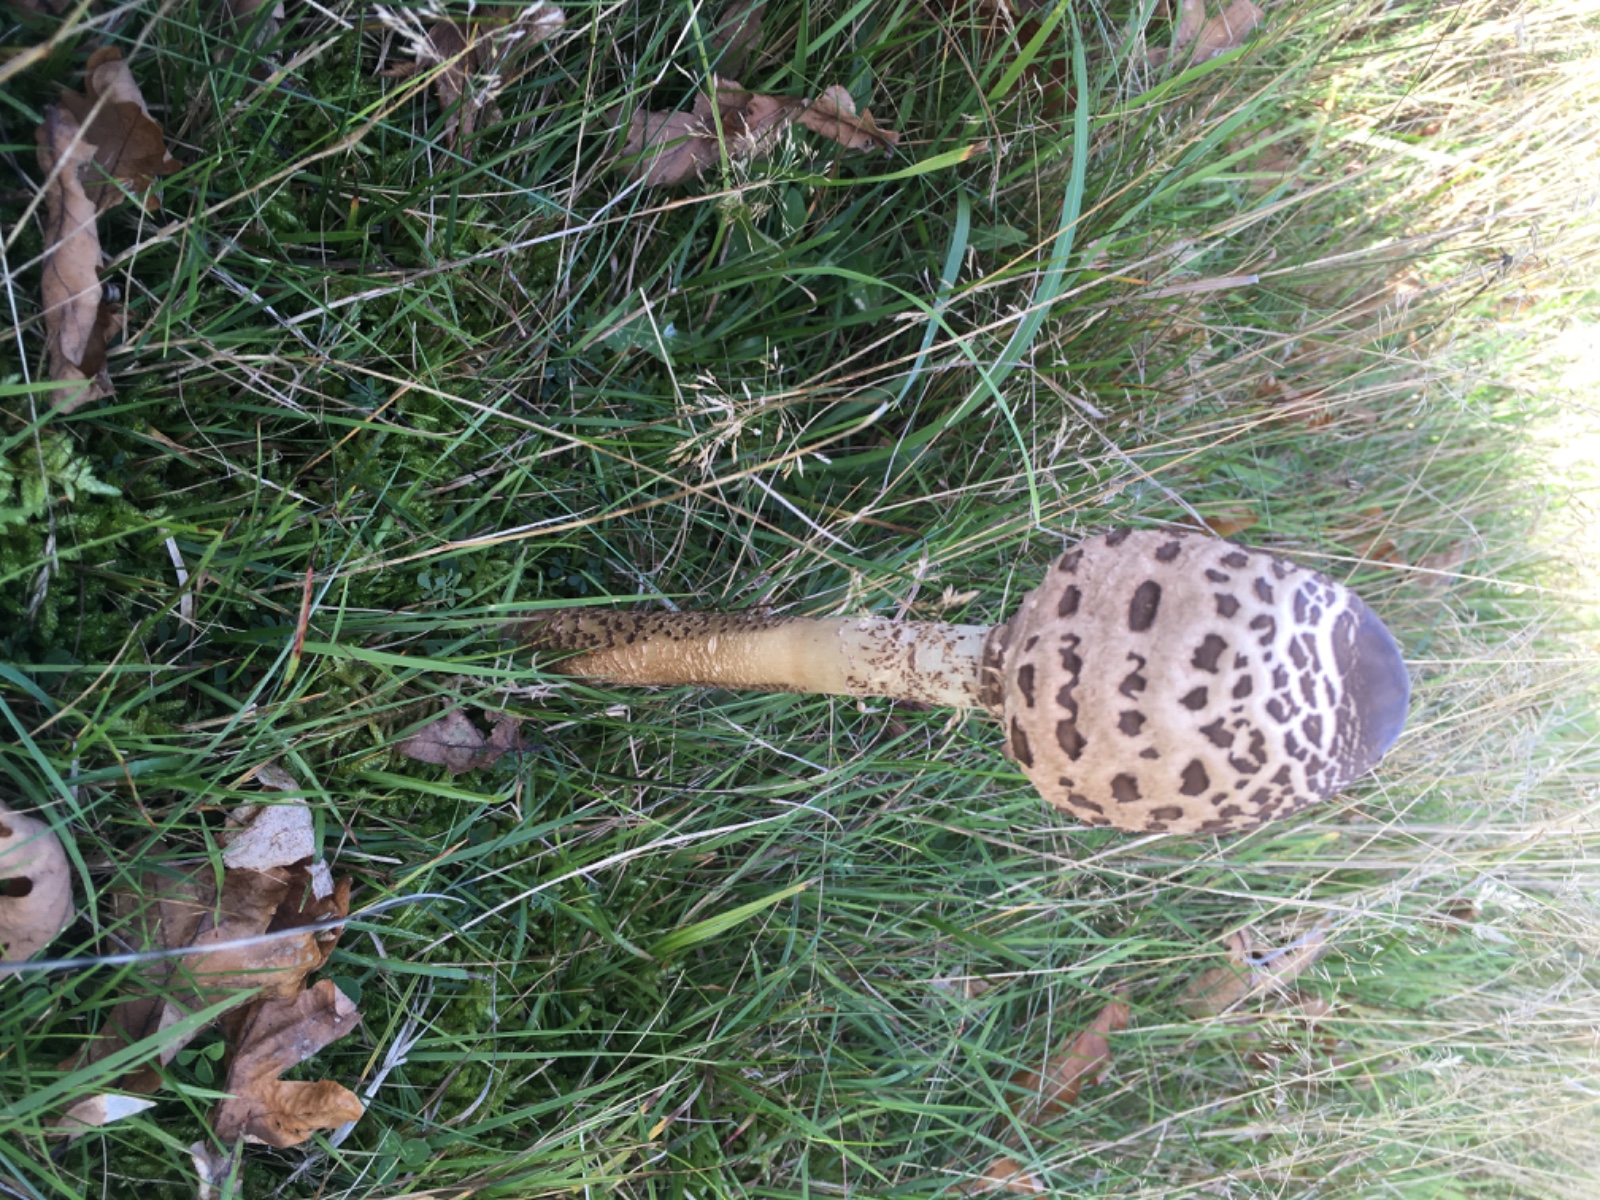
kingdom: Fungi
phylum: Basidiomycota
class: Agaricomycetes
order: Agaricales
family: Agaricaceae
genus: Macrolepiota
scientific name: Macrolepiota procera
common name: stor kæmpeparasolhat
